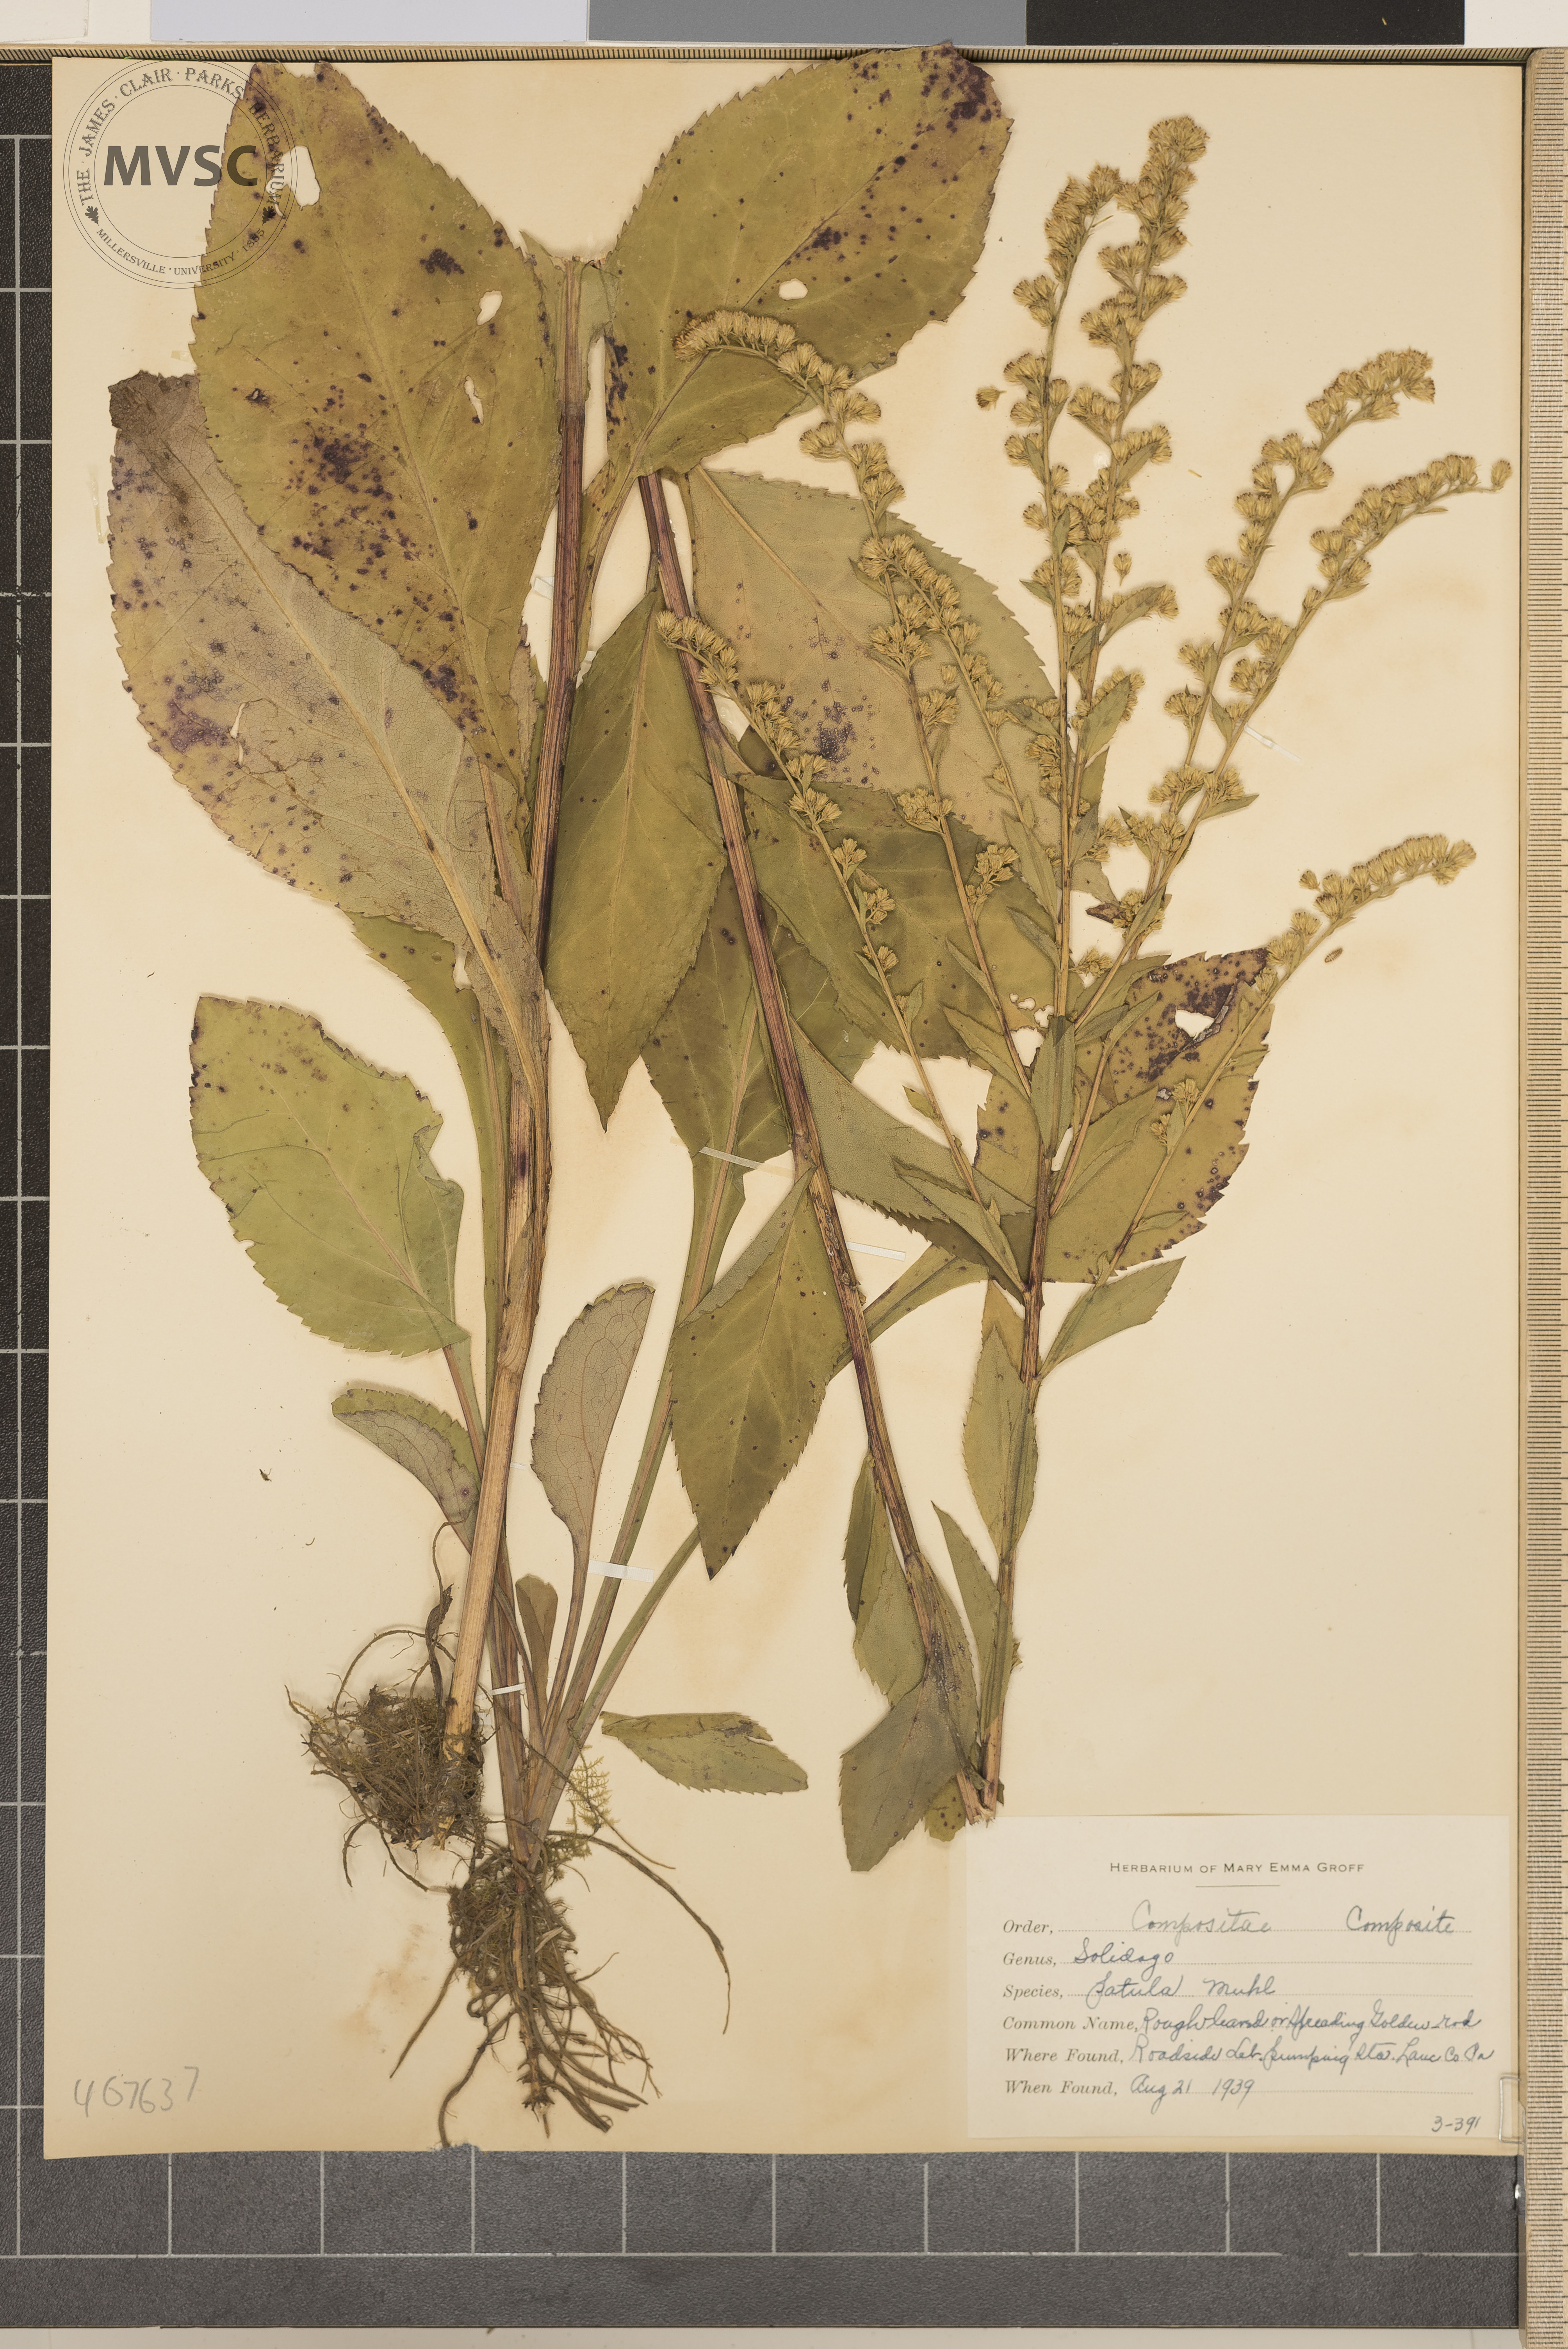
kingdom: Plantae
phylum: Tracheophyta
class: Magnoliopsida
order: Asterales
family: Asteraceae
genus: Solidago
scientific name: Solidago patula
